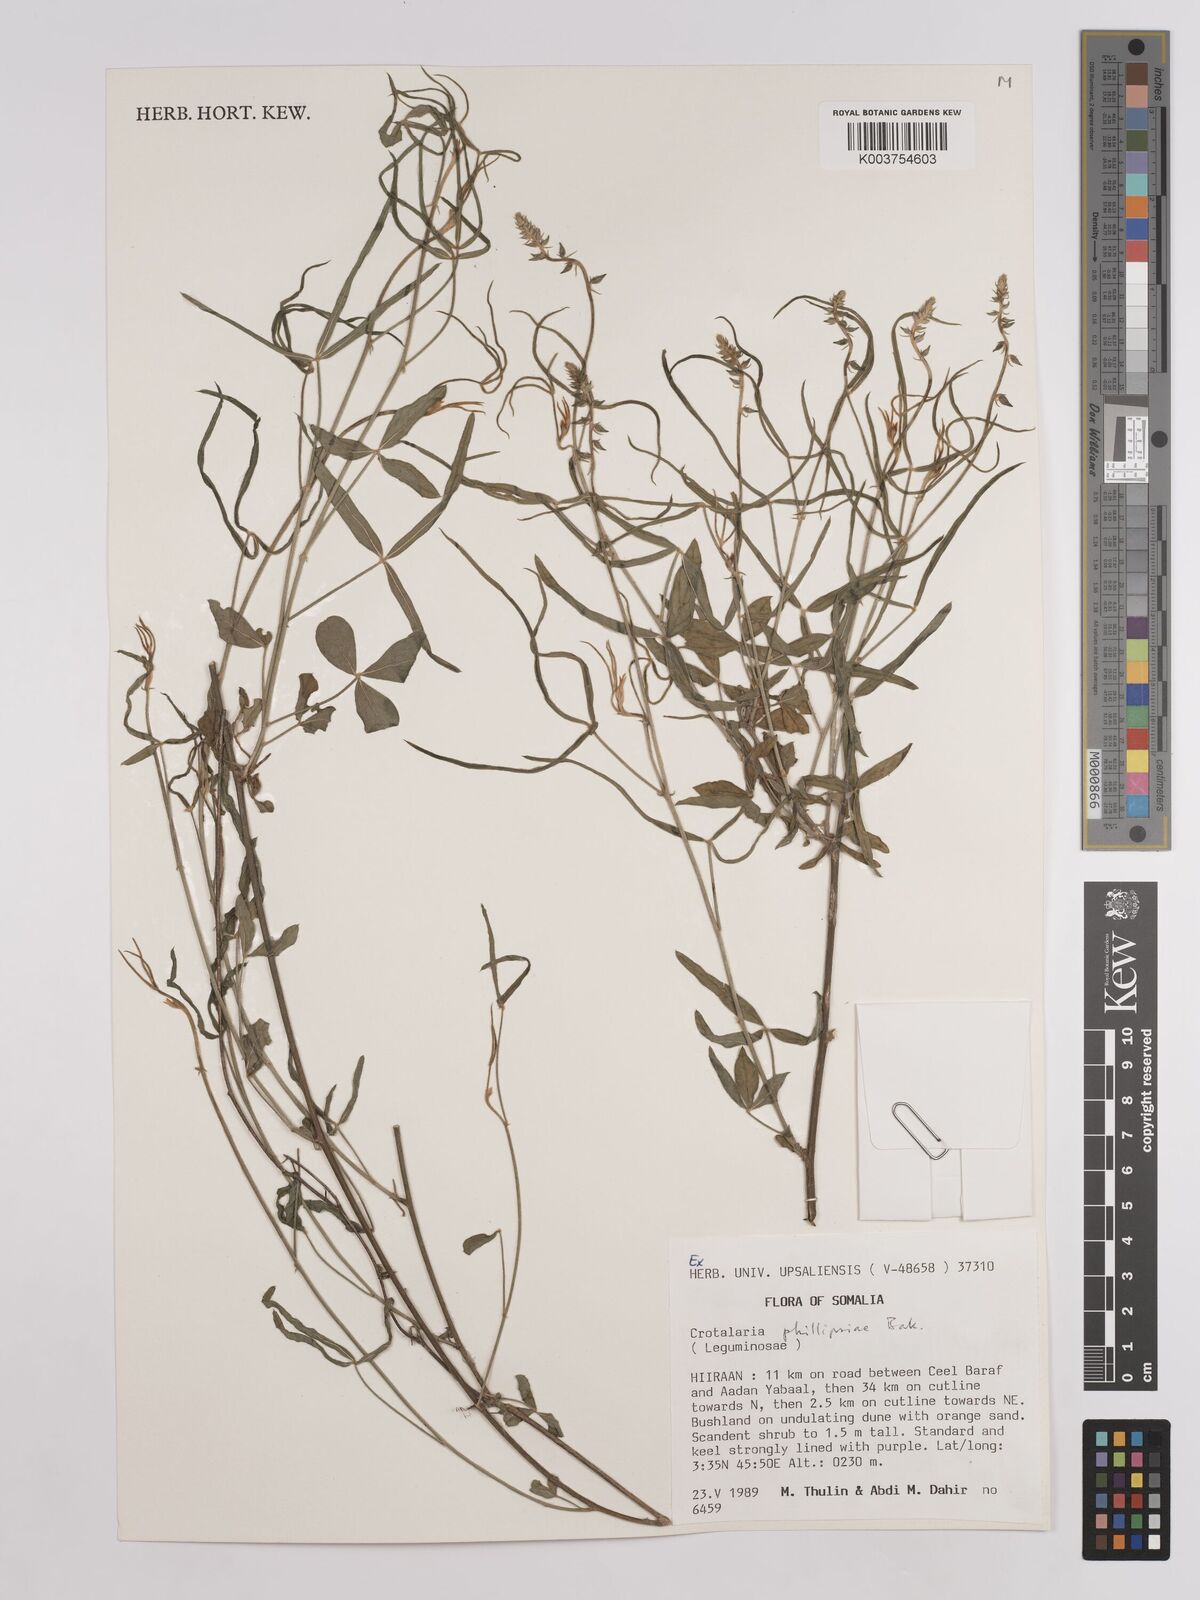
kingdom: Plantae
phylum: Tracheophyta
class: Magnoliopsida
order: Fabales
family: Fabaceae
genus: Crotalaria
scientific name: Crotalaria phillipsiae
